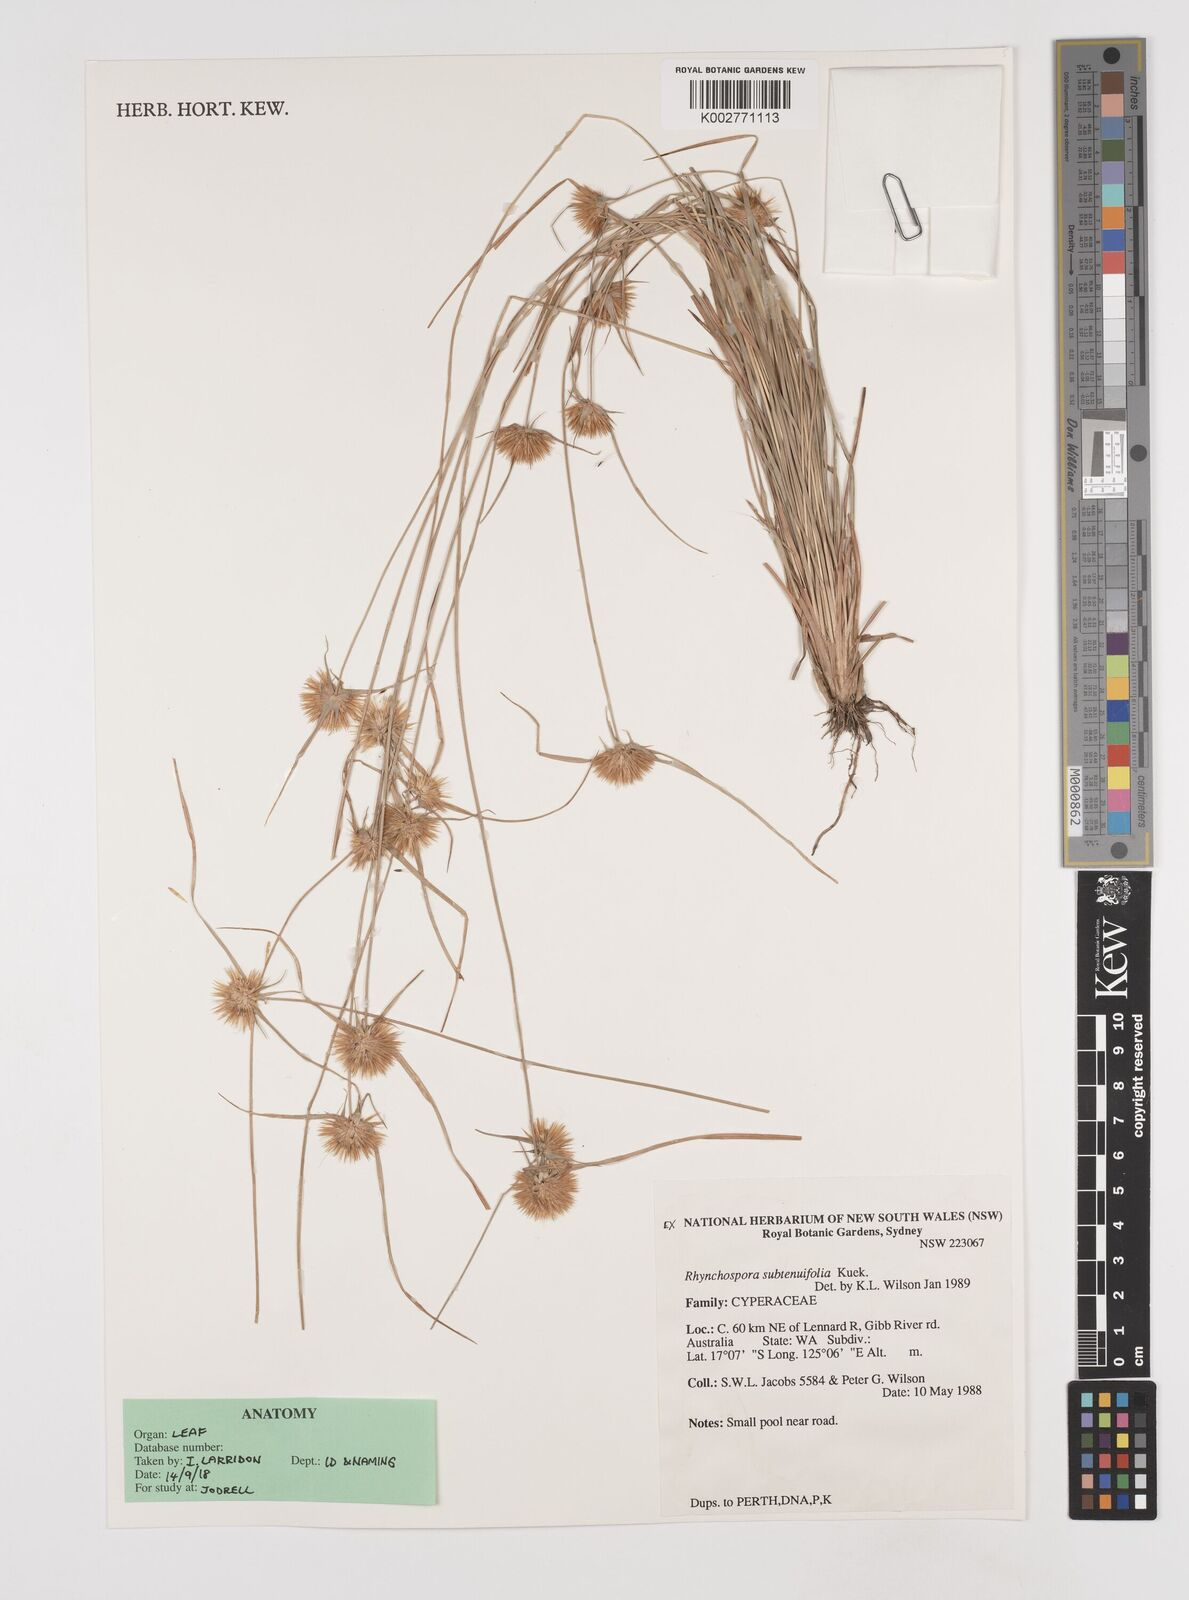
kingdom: Plantae
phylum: Tracheophyta
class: Liliopsida
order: Poales
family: Cyperaceae
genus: Rhynchospora
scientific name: Rhynchospora subtenuifolia
